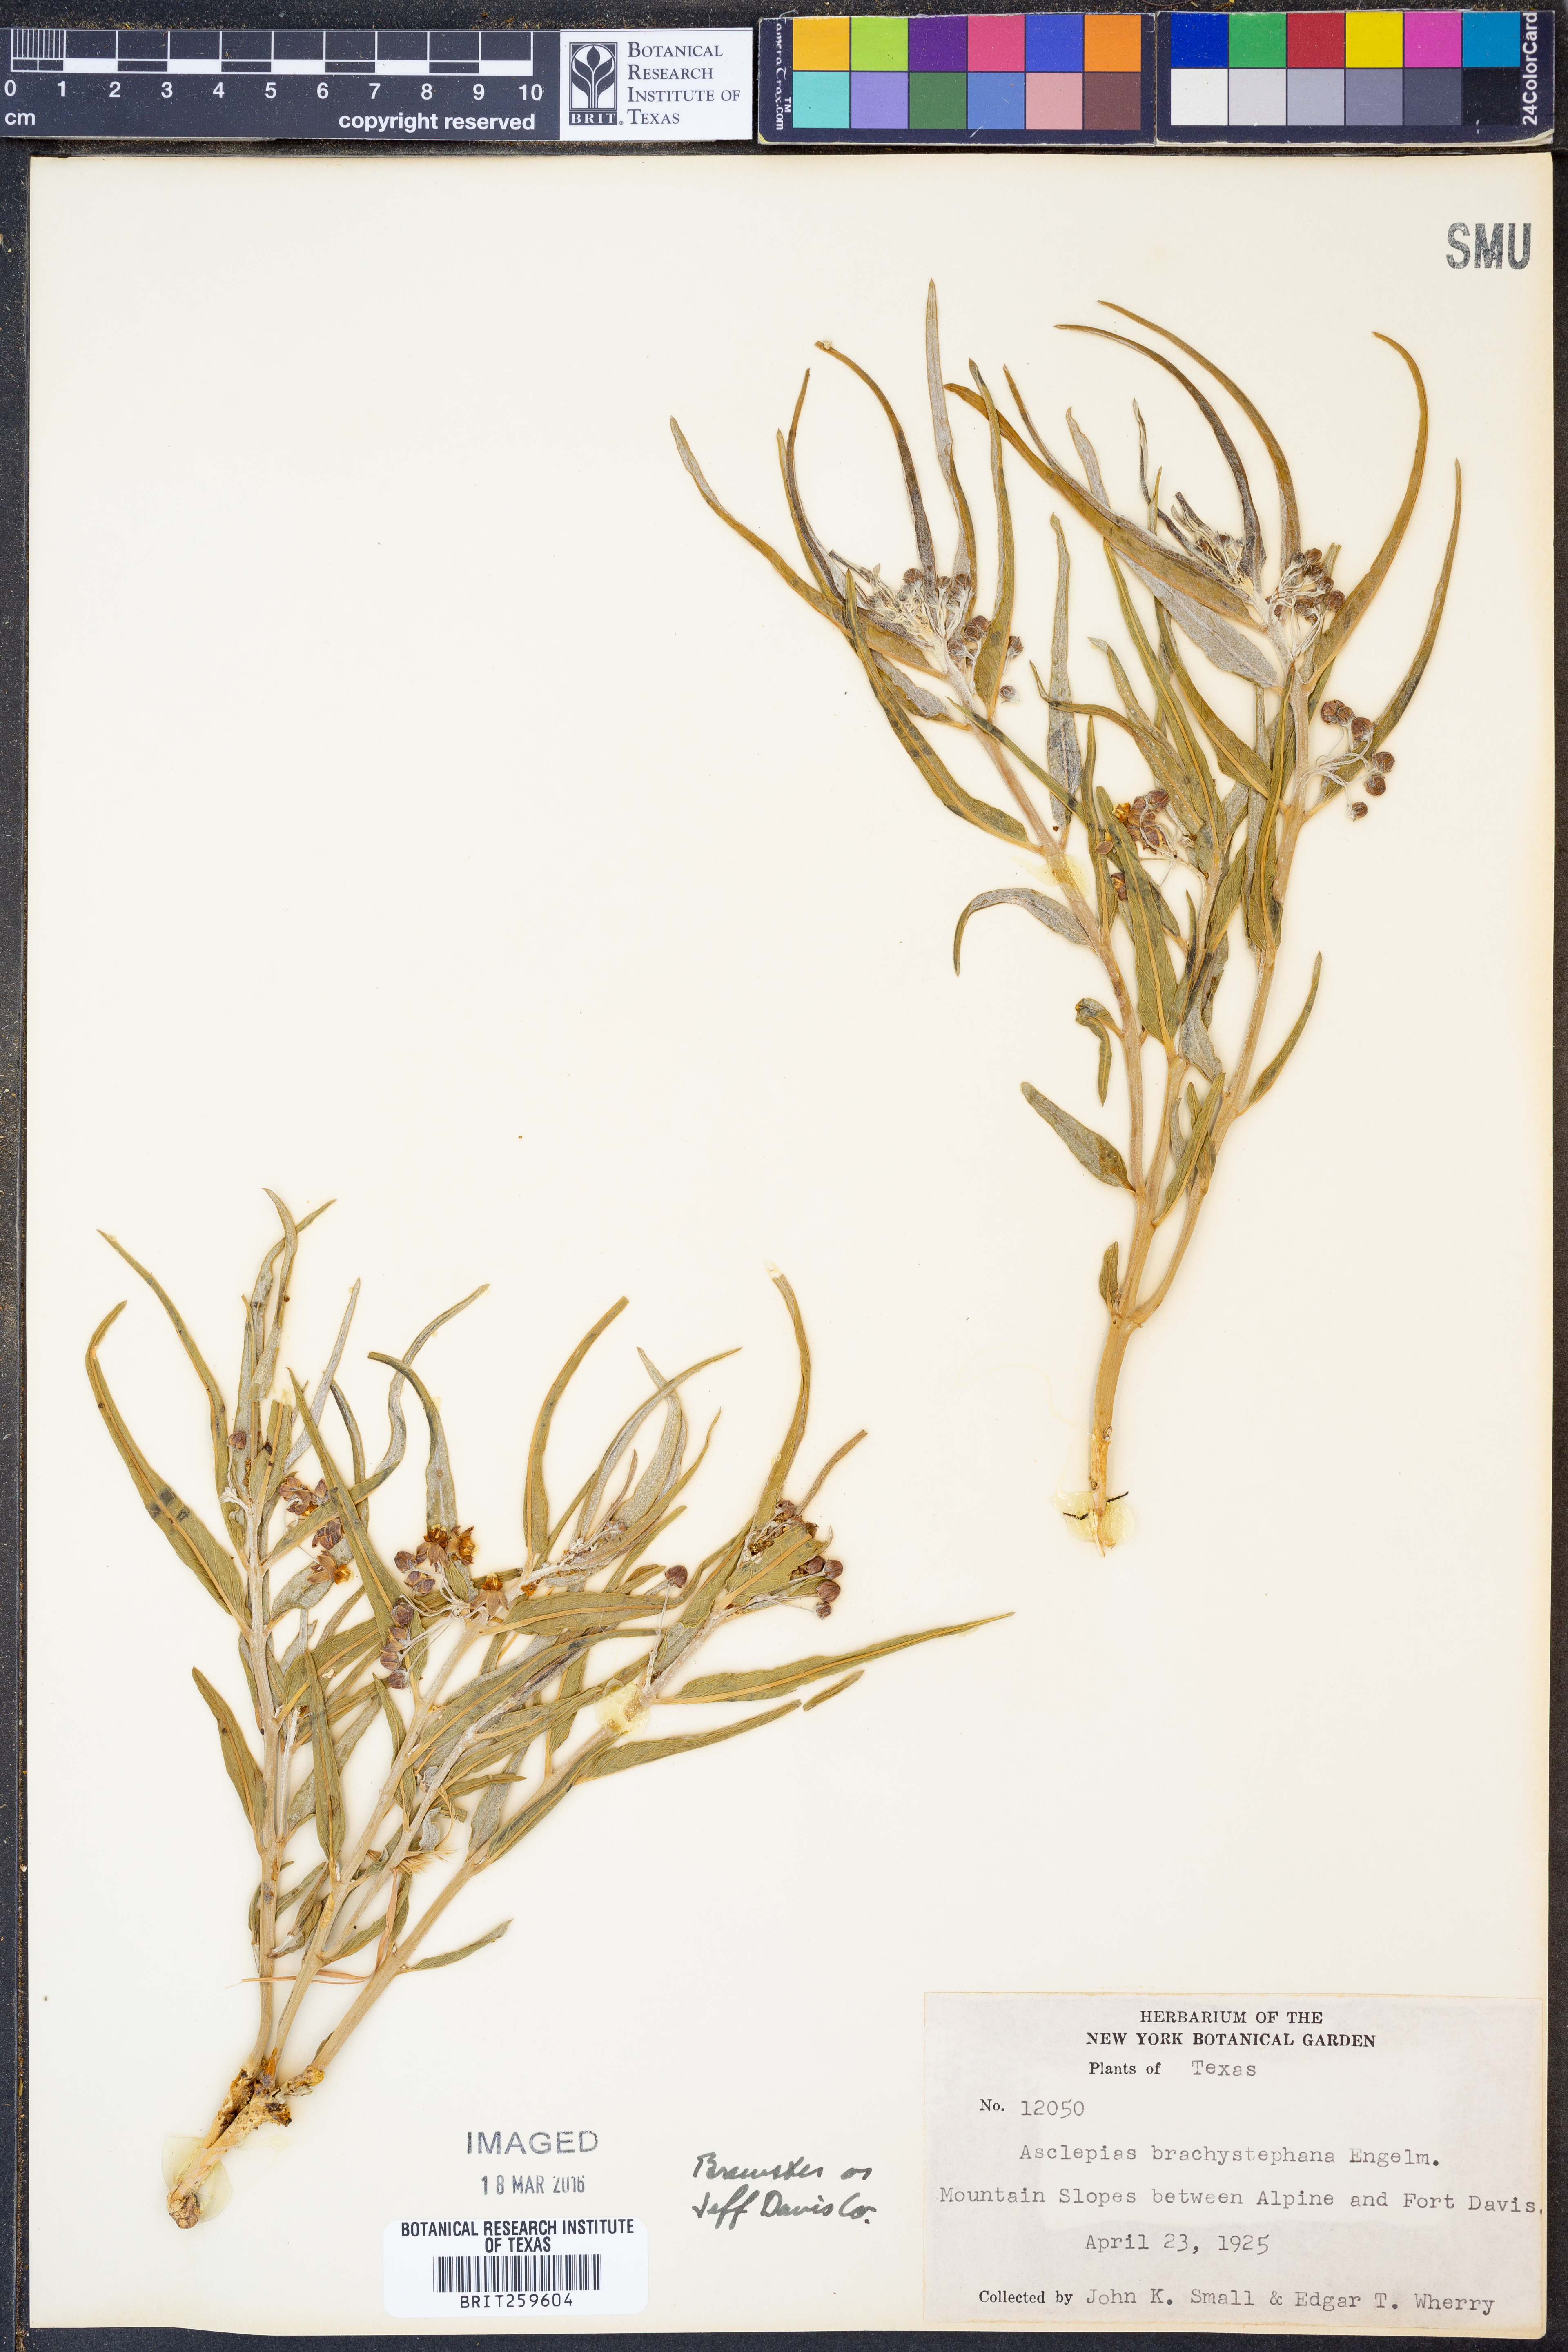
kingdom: Plantae
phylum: Tracheophyta
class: Magnoliopsida
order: Gentianales
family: Apocynaceae
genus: Asclepias
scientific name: Asclepias brachystephana
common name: Shortcrown milkweed
